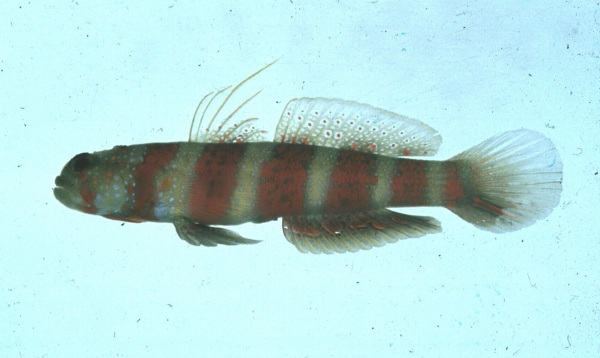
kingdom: Animalia
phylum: Chordata
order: Perciformes
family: Gobiidae
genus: Amblyeleotris
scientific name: Amblyeleotris wheeleri
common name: Gorgeous prawn-goby
